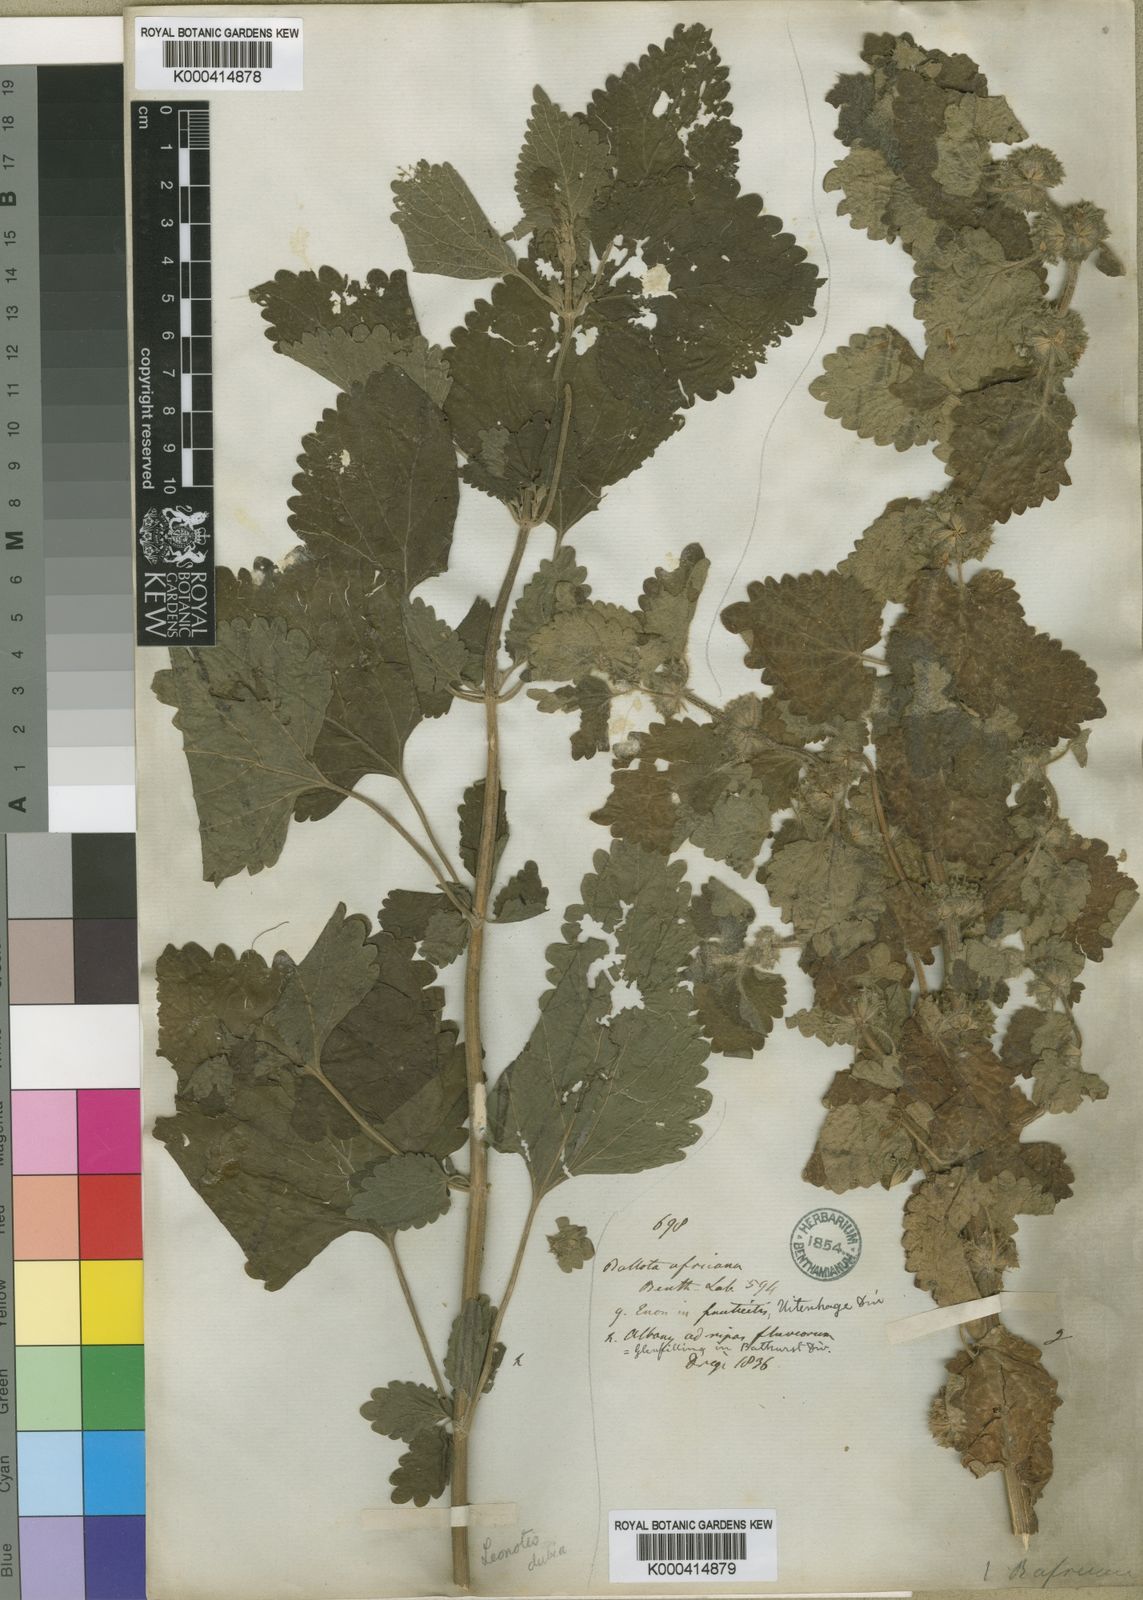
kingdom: Plantae
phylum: Tracheophyta
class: Magnoliopsida
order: Lamiales
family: Lamiaceae
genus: Pseudodictamnus
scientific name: Pseudodictamnus africanus
